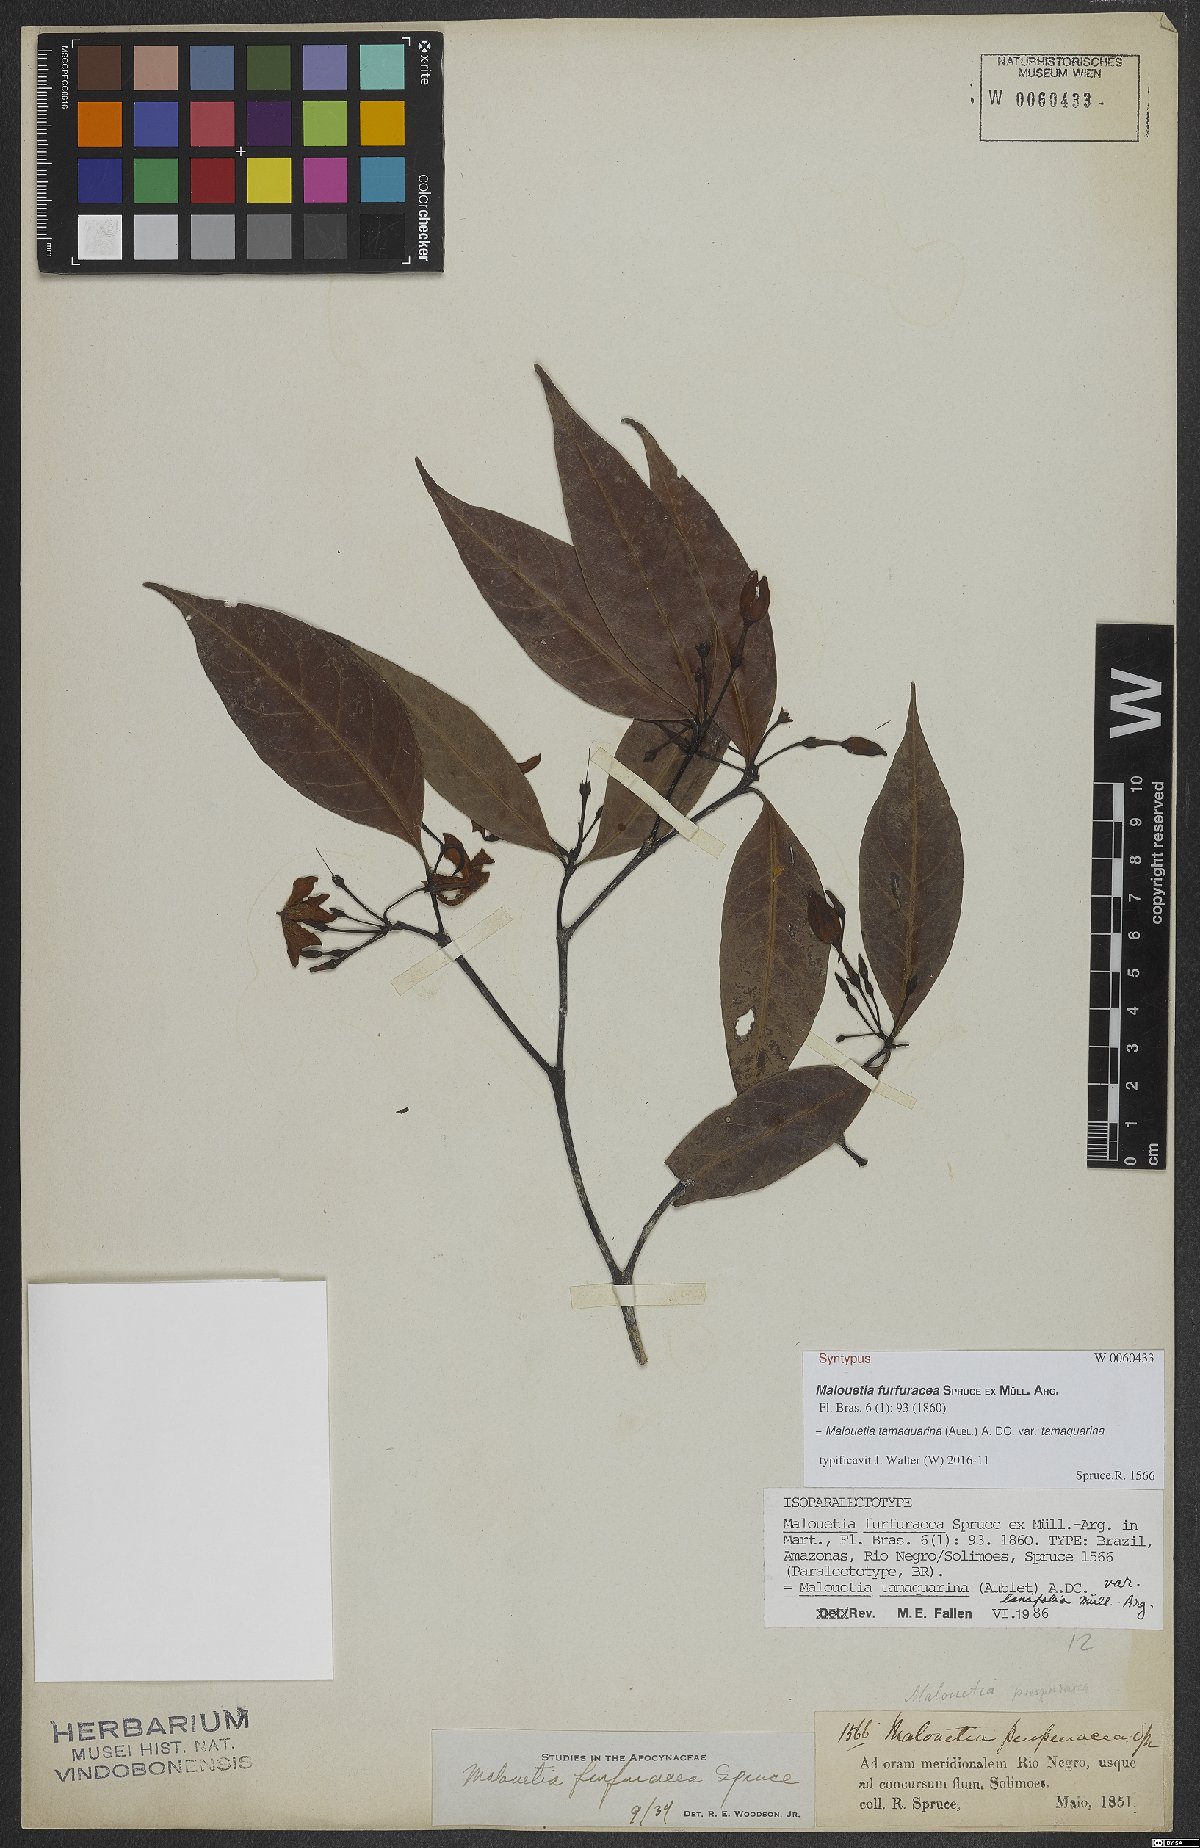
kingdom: Plantae
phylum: Tracheophyta
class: Magnoliopsida
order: Gentianales
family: Apocynaceae
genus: Malouetia
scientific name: Malouetia tamaquarina
